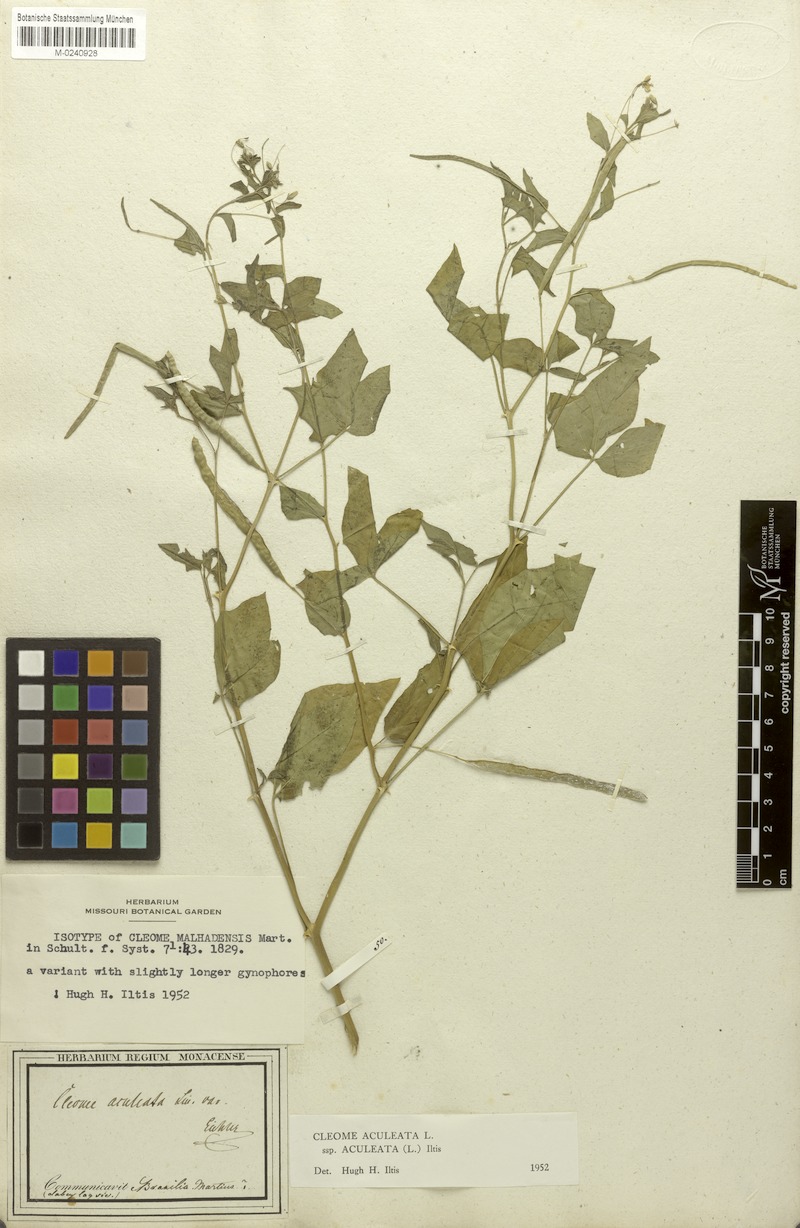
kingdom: Plantae
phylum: Tracheophyta
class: Magnoliopsida
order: Brassicales
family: Cleomaceae
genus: Tarenaya
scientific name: Tarenaya aculeata
